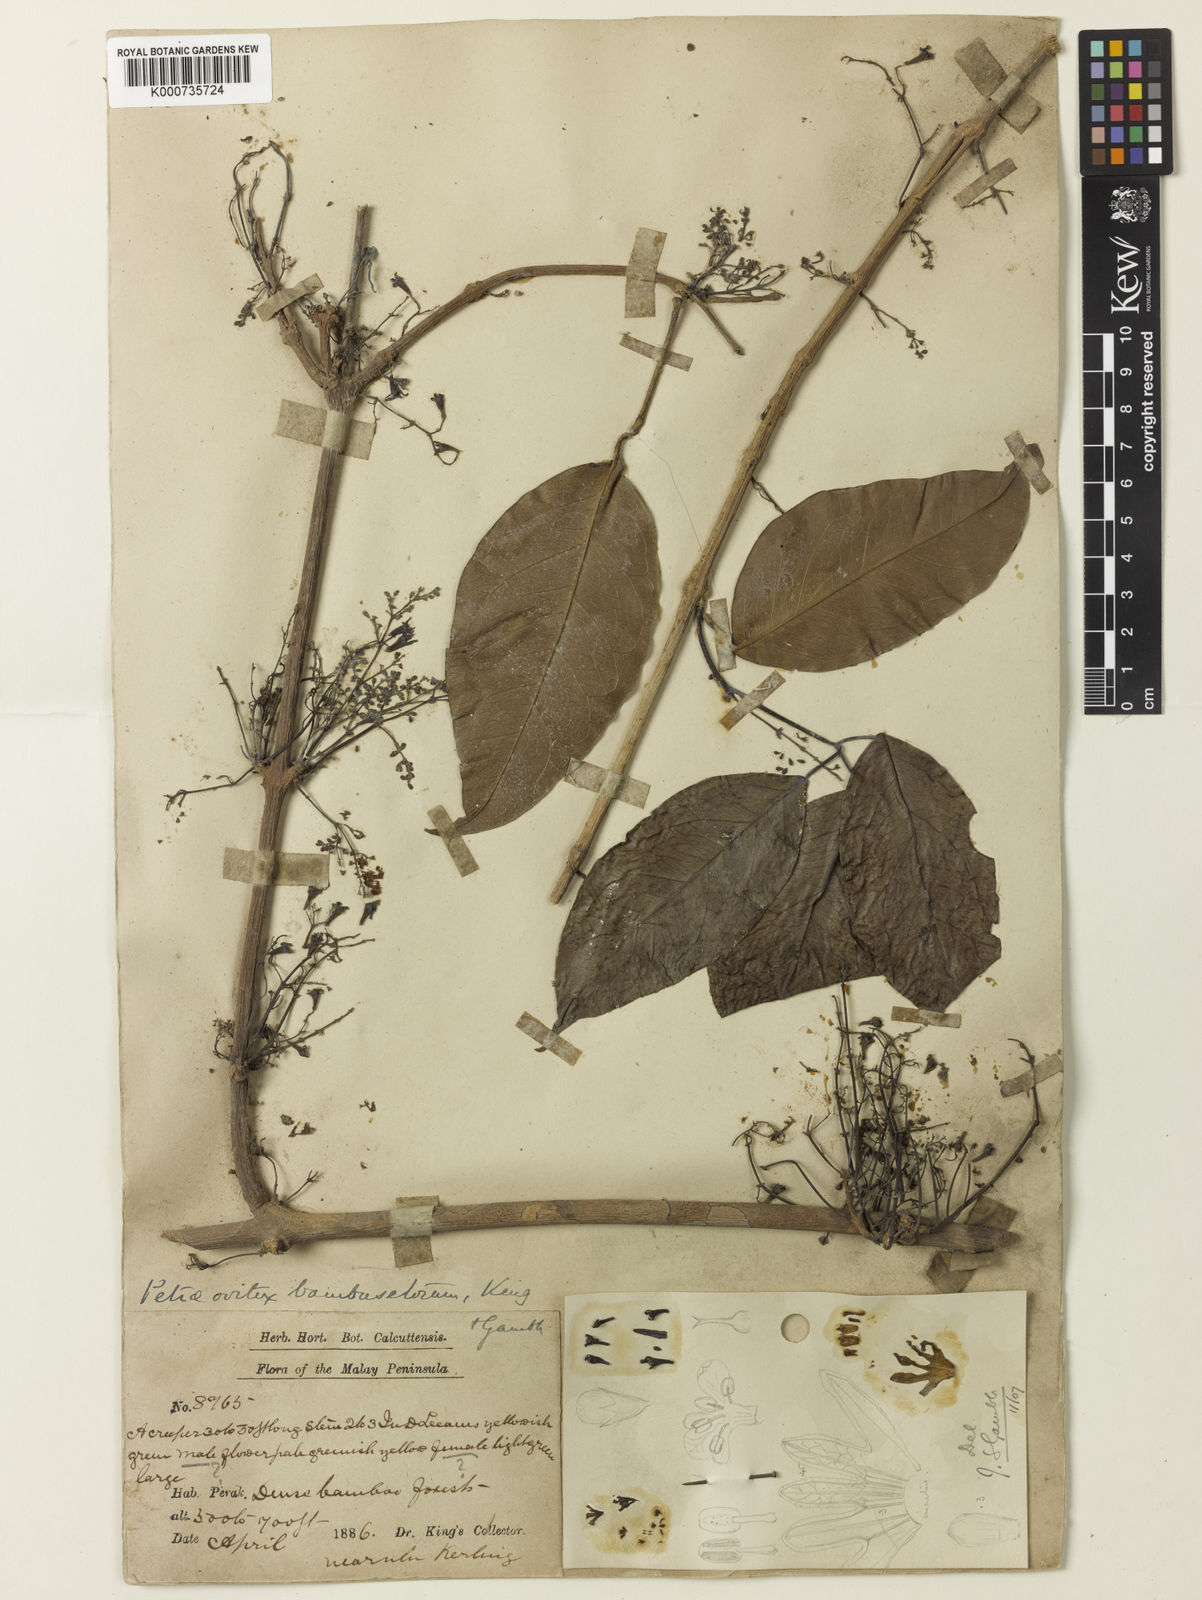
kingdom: Plantae
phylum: Tracheophyta
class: Magnoliopsida
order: Lamiales
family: Lamiaceae
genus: Petraeovitex
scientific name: Petraeovitex bambusetorum
